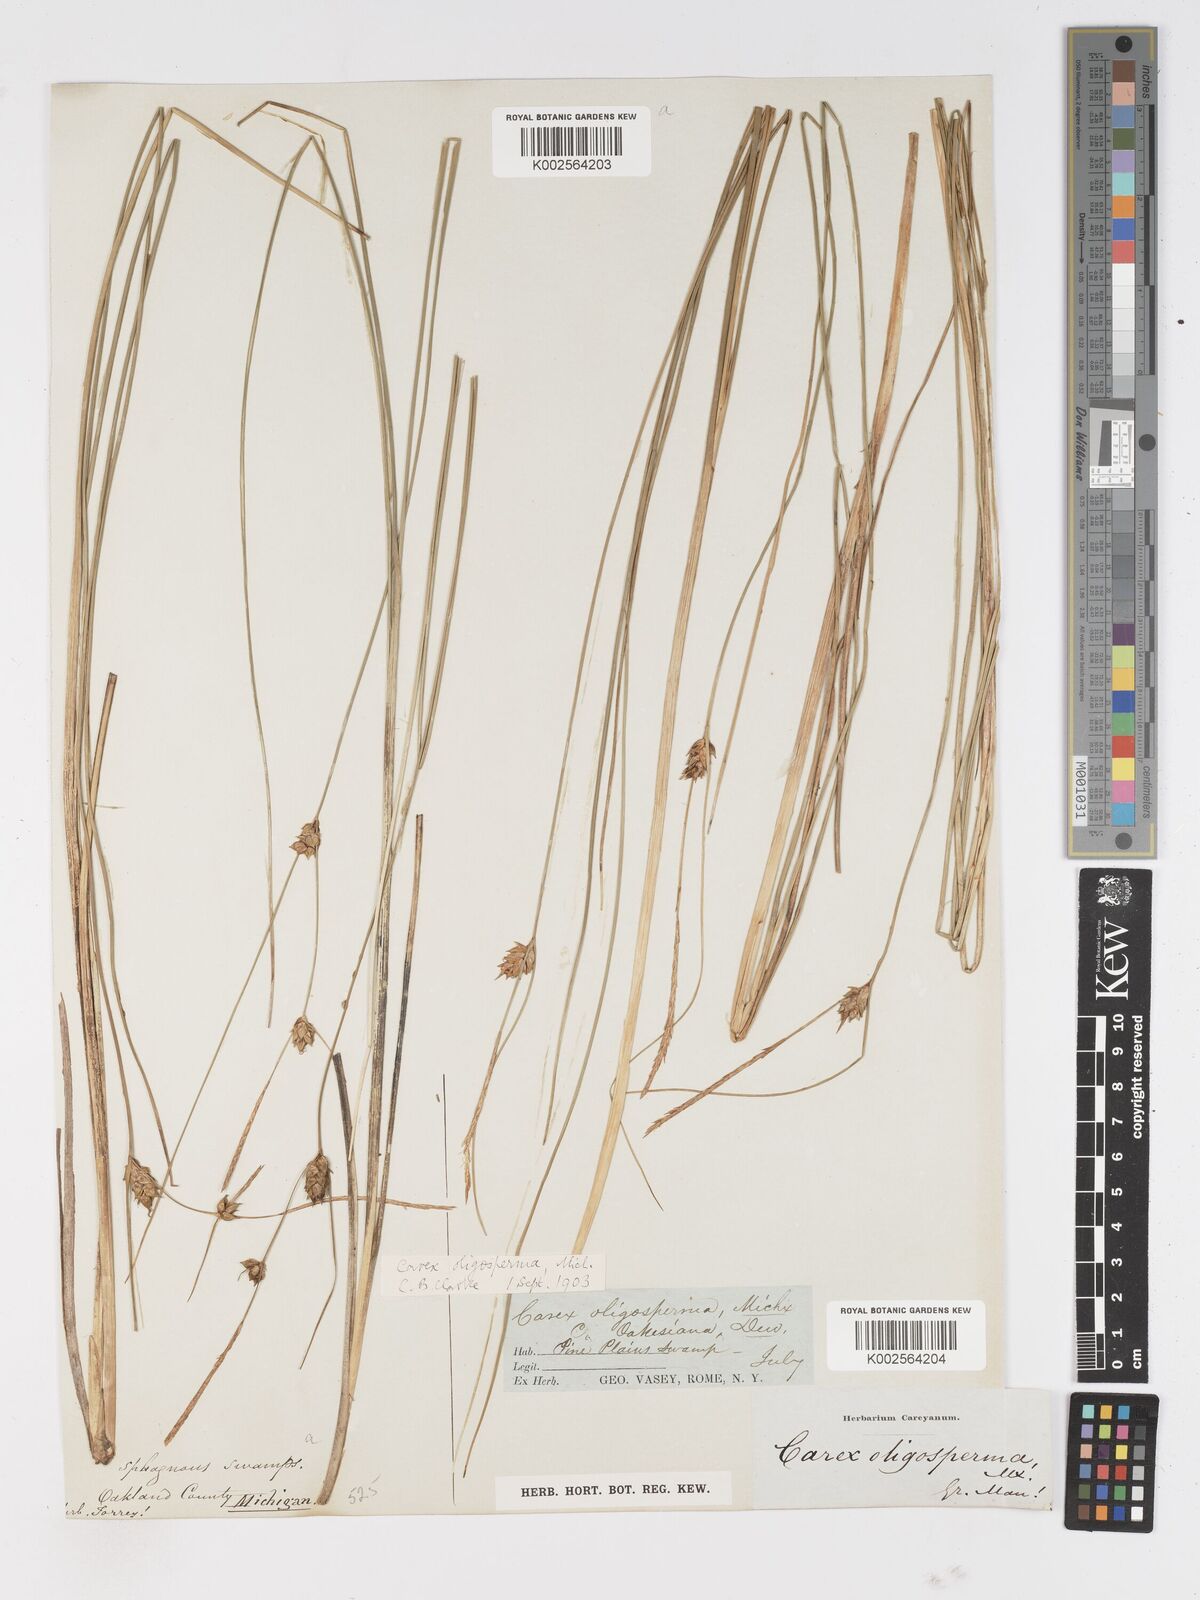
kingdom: Plantae
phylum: Tracheophyta
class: Liliopsida
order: Poales
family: Cyperaceae
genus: Carex
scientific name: Carex oligosperma
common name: Few-seed sedge
